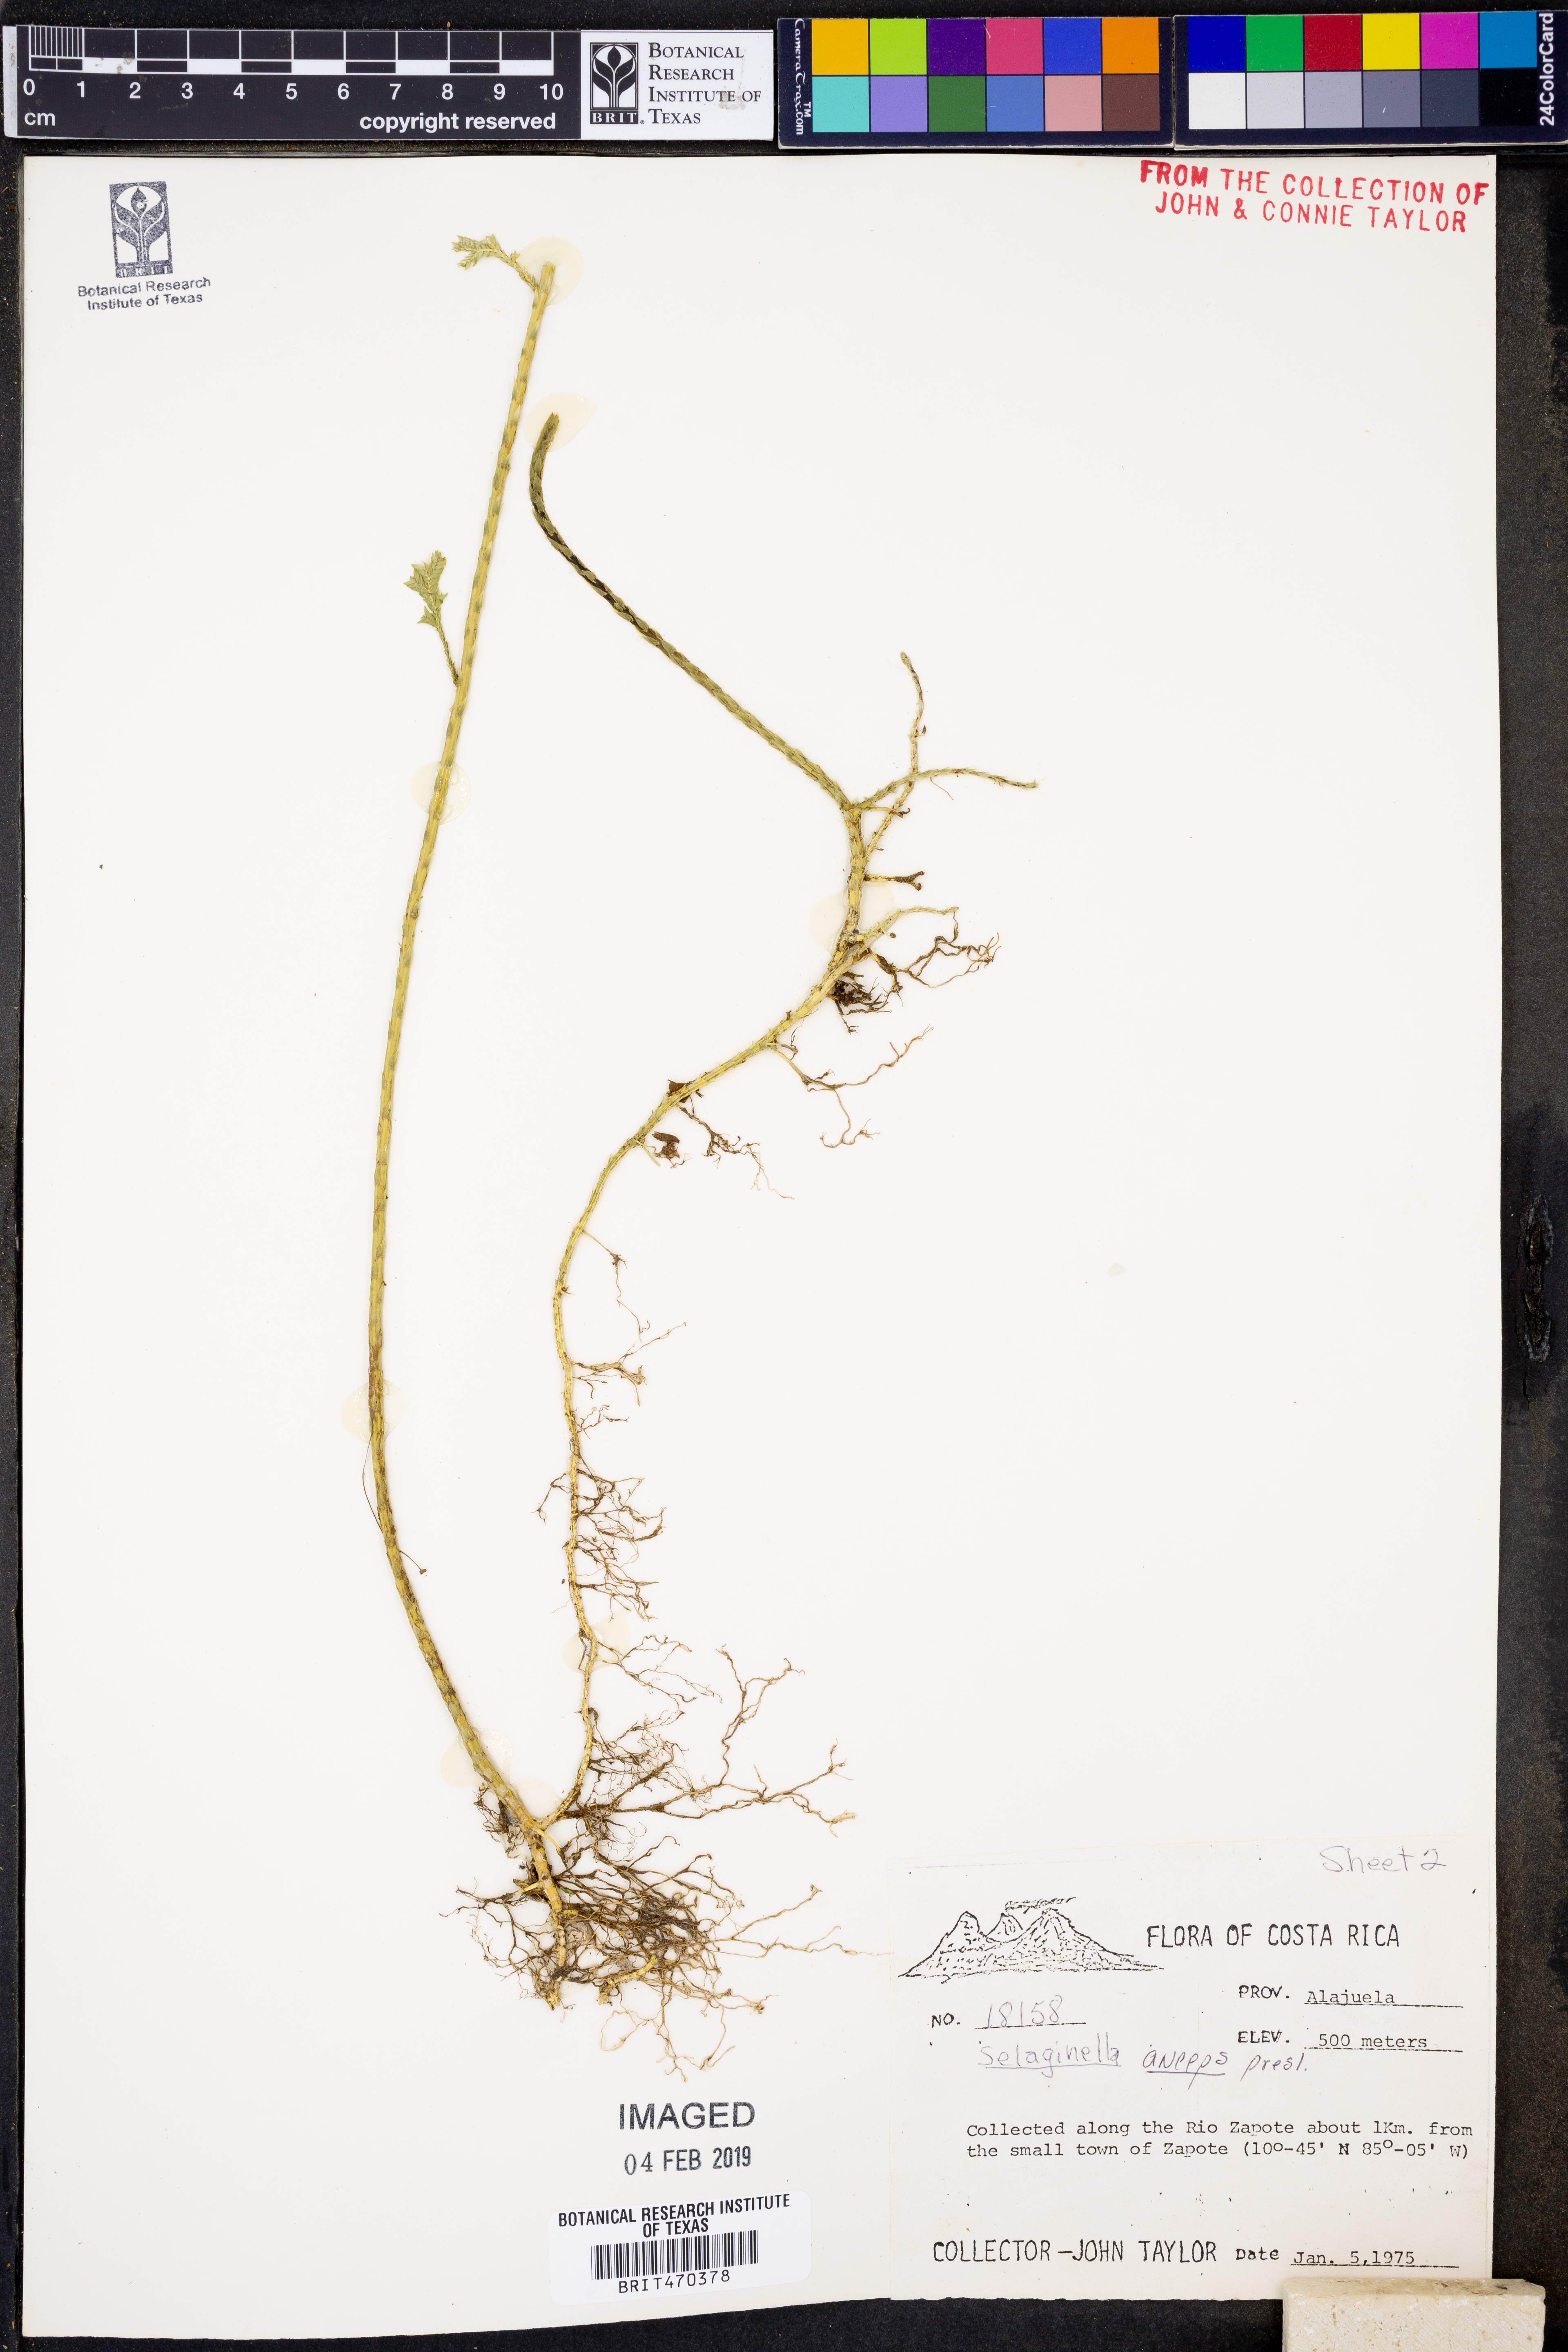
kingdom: Plantae
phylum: Tracheophyta
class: Lycopodiopsida
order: Selaginellales
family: Selaginellaceae
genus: Selaginella
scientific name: Selaginella anceps
